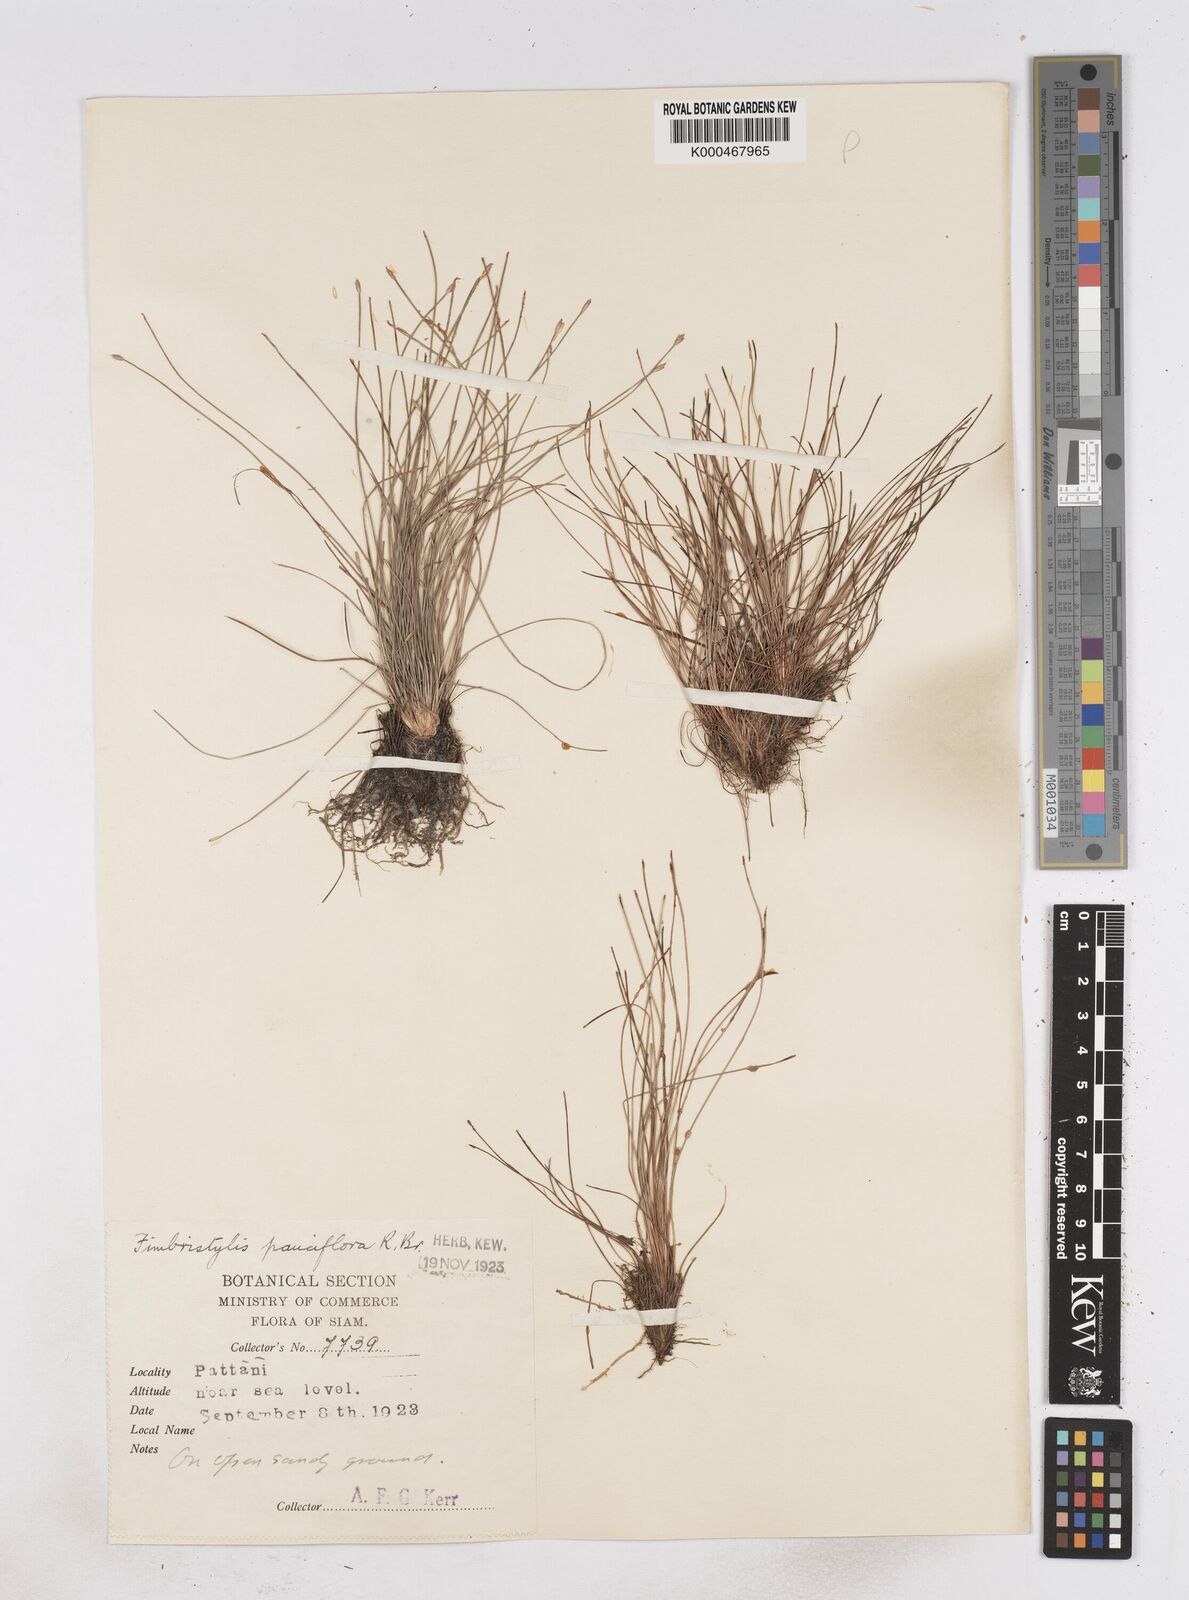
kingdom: Plantae
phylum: Tracheophyta
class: Liliopsida
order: Poales
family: Cyperaceae
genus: Fimbristylis
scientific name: Fimbristylis pauciflora
